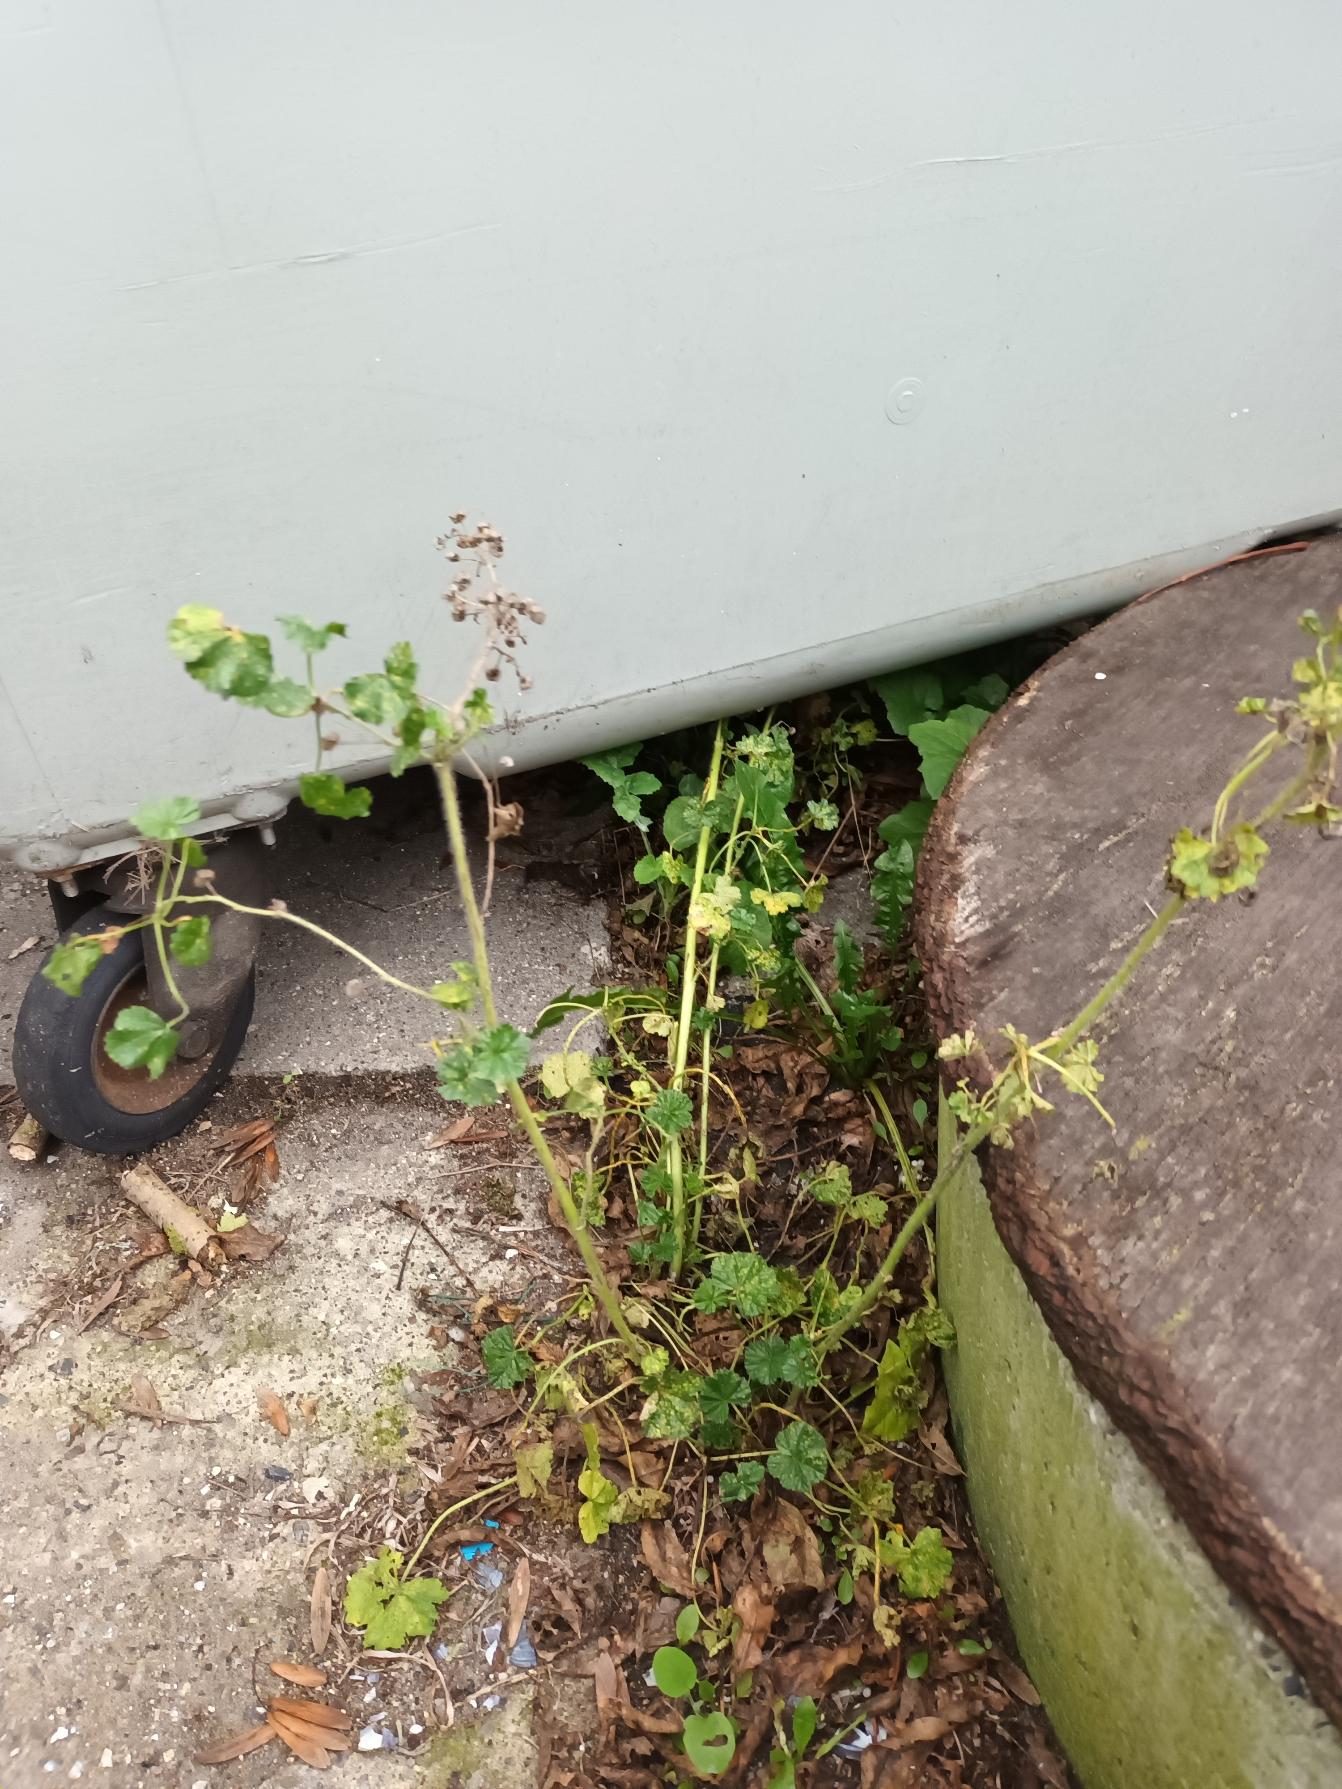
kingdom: Plantae
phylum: Tracheophyta
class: Magnoliopsida
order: Malvales
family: Malvaceae
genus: Malva
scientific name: Malva sylvestris
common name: Almindelig katost
